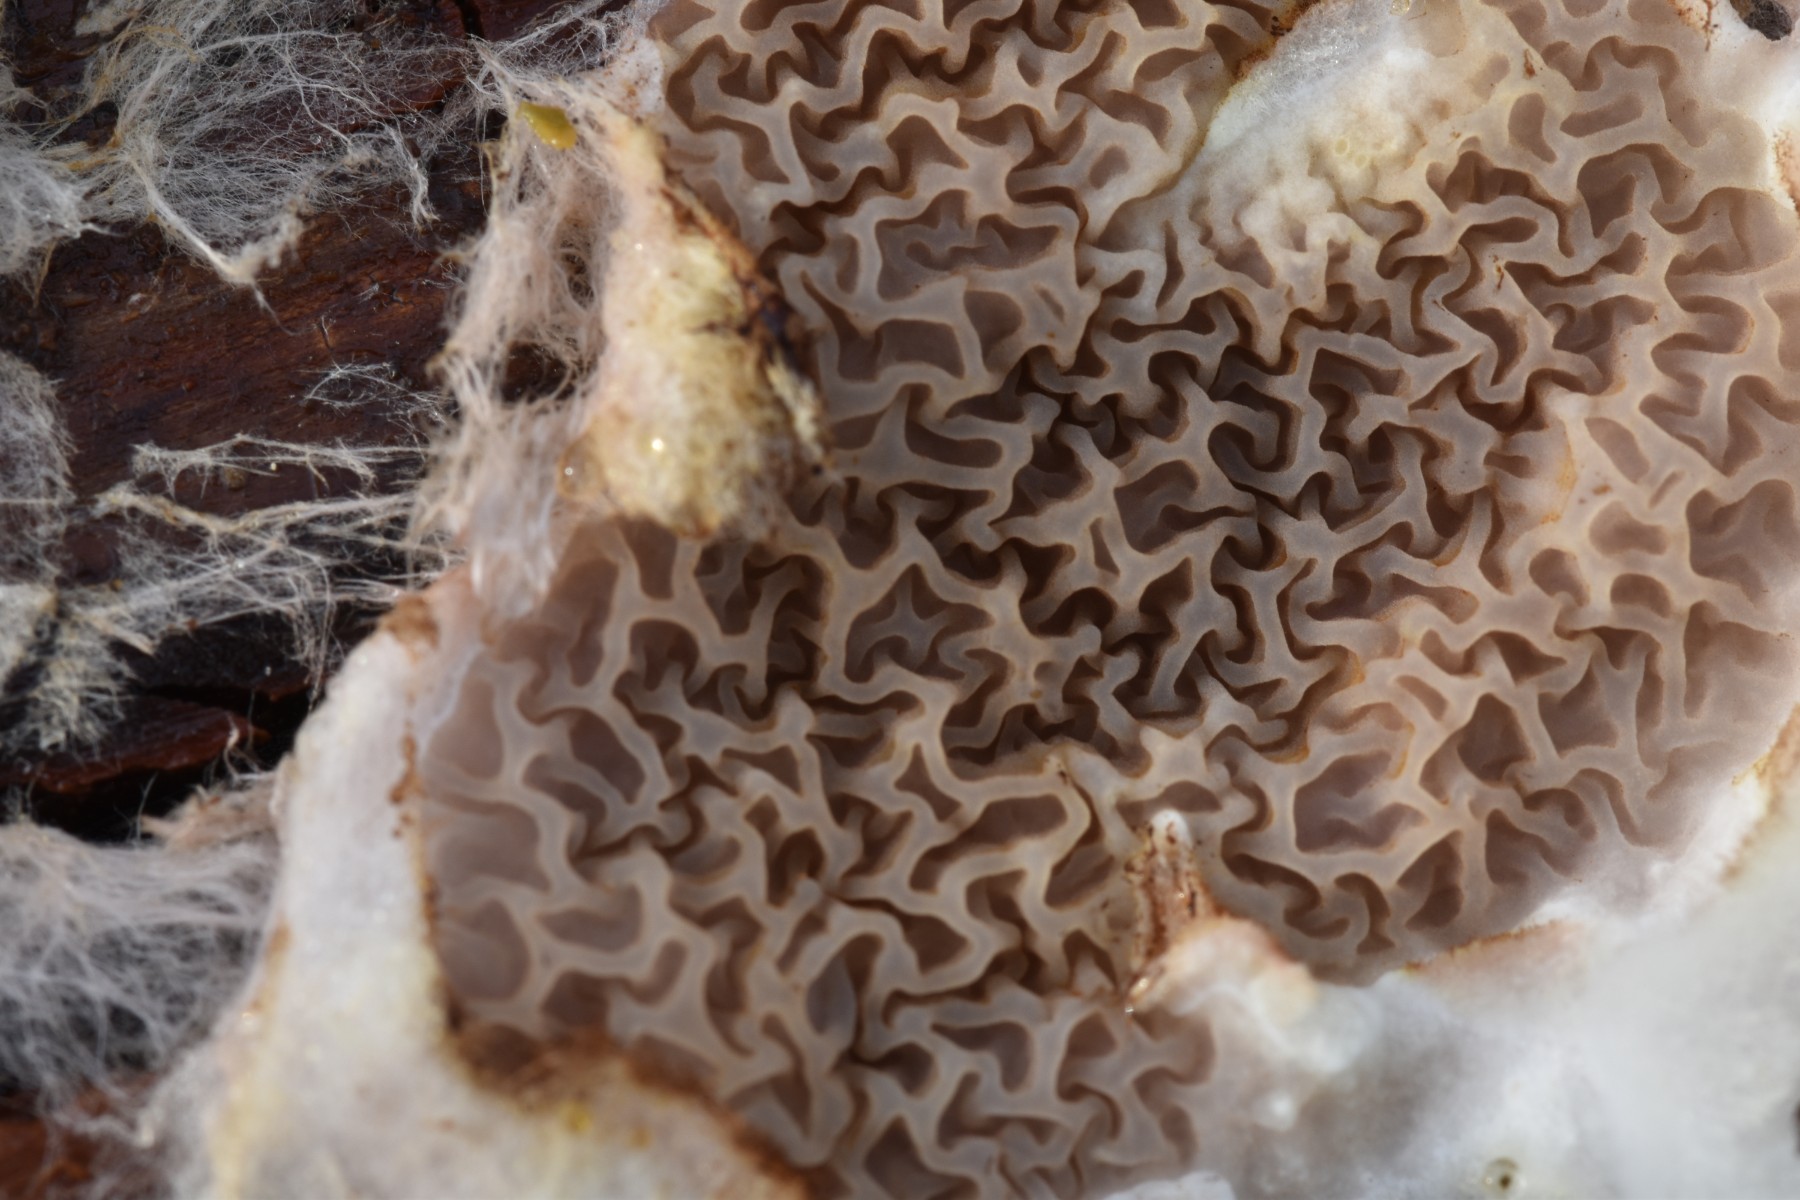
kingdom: Fungi
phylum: Basidiomycota
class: Agaricomycetes
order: Boletales
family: Serpulaceae
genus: Serpula
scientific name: Serpula himantioides
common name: tyndkødet hussvamp
